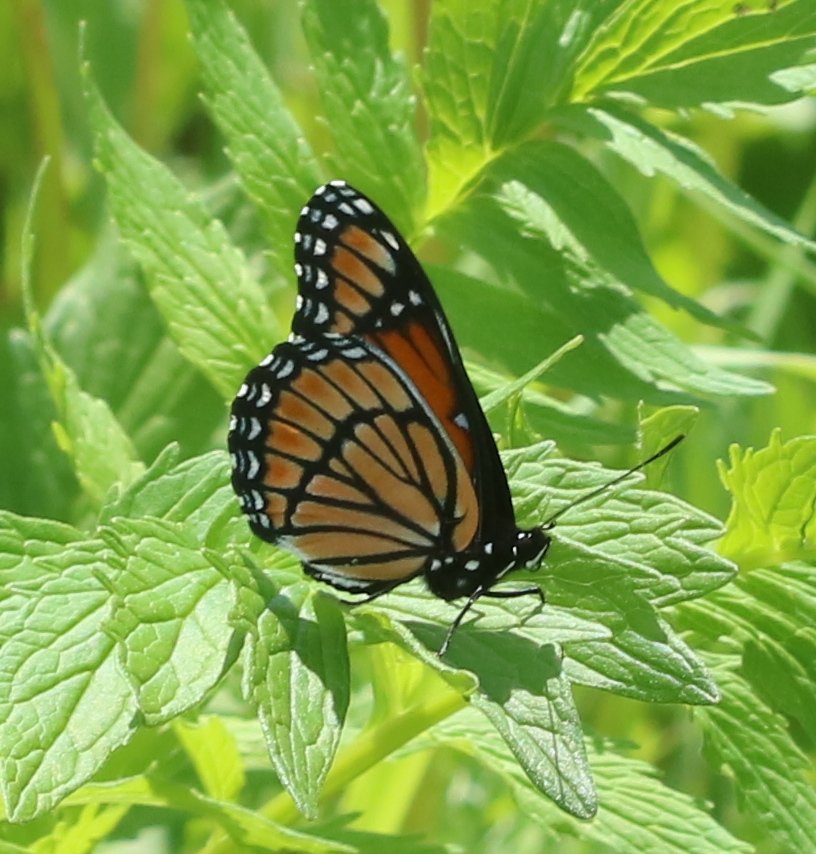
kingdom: Animalia
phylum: Arthropoda
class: Insecta
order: Lepidoptera
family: Nymphalidae
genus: Limenitis
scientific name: Limenitis archippus
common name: Viceroy
